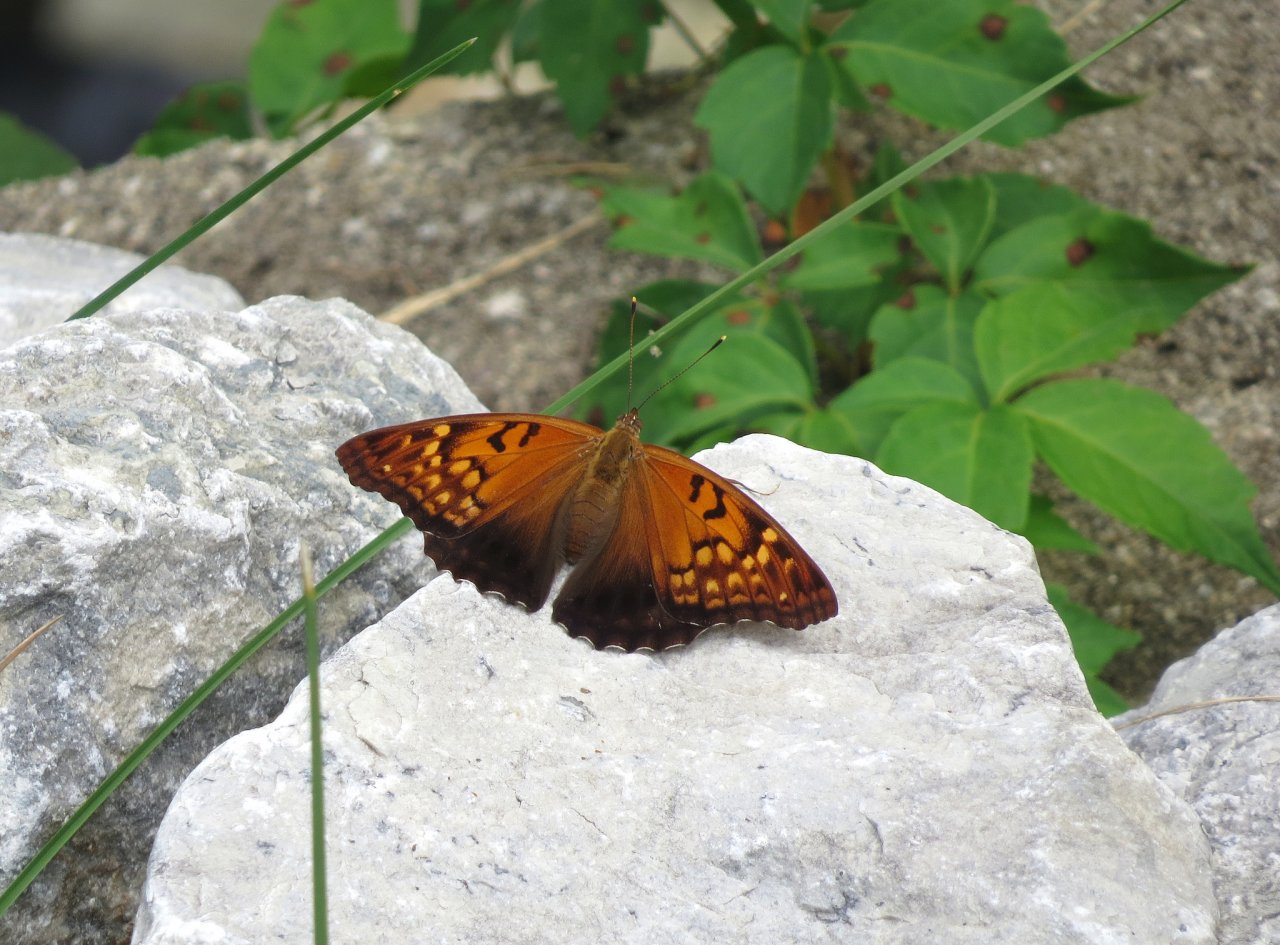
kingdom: Animalia
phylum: Arthropoda
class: Insecta
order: Lepidoptera
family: Nymphalidae
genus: Asterocampa
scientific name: Asterocampa clyton
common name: Tawny Emperor
